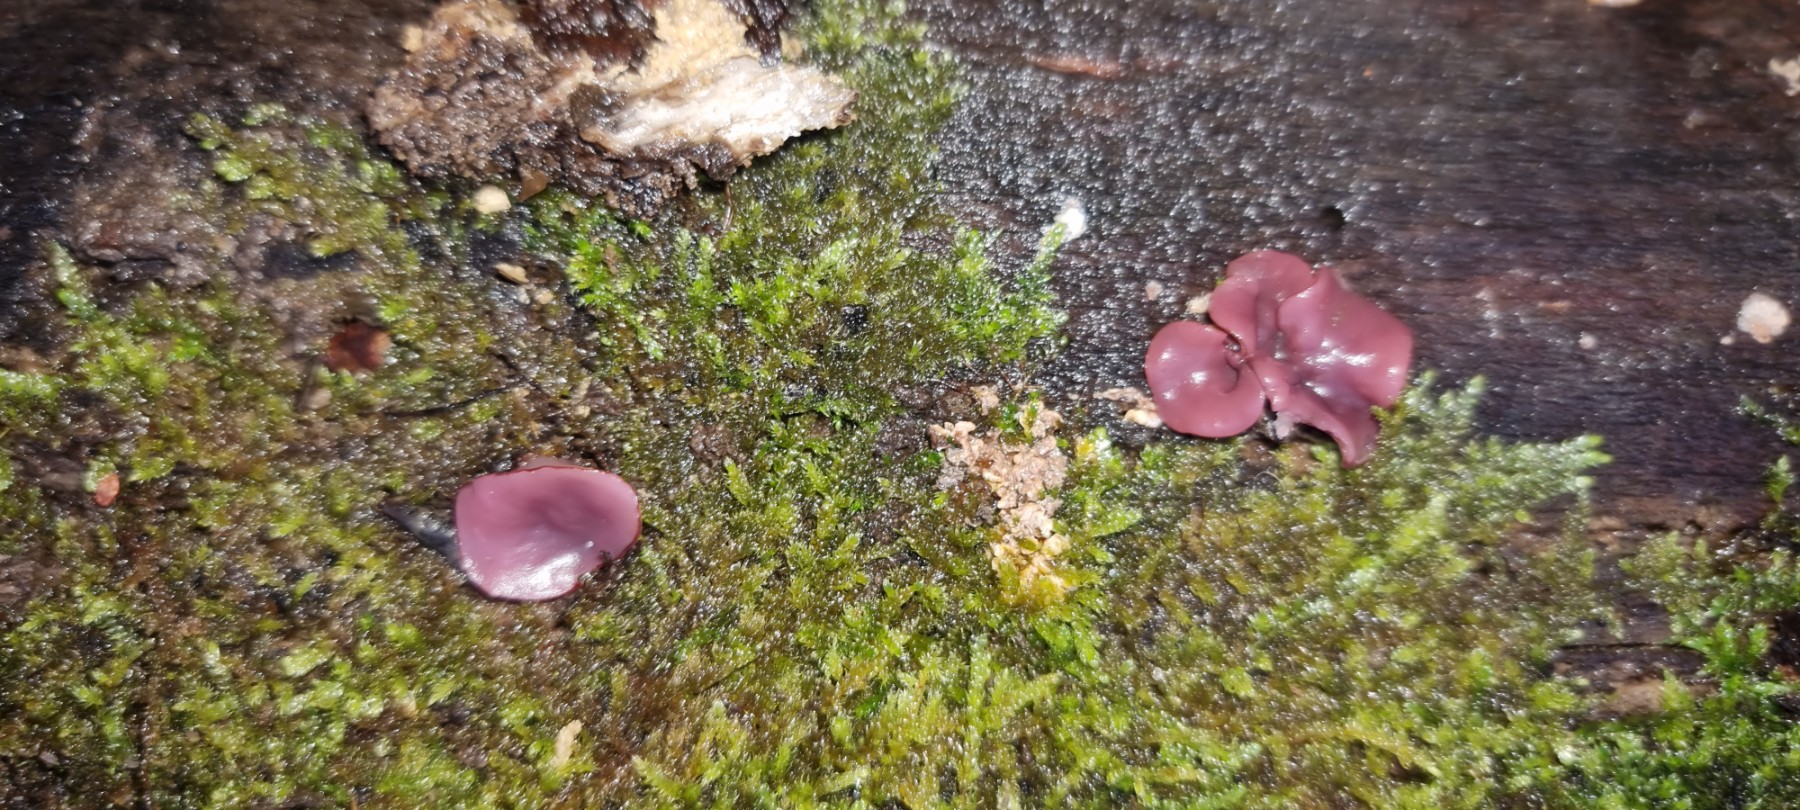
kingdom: Fungi
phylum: Ascomycota
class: Leotiomycetes
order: Helotiales
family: Gelatinodiscaceae
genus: Ascocoryne
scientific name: Ascocoryne cylichnium
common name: stor sejskive
